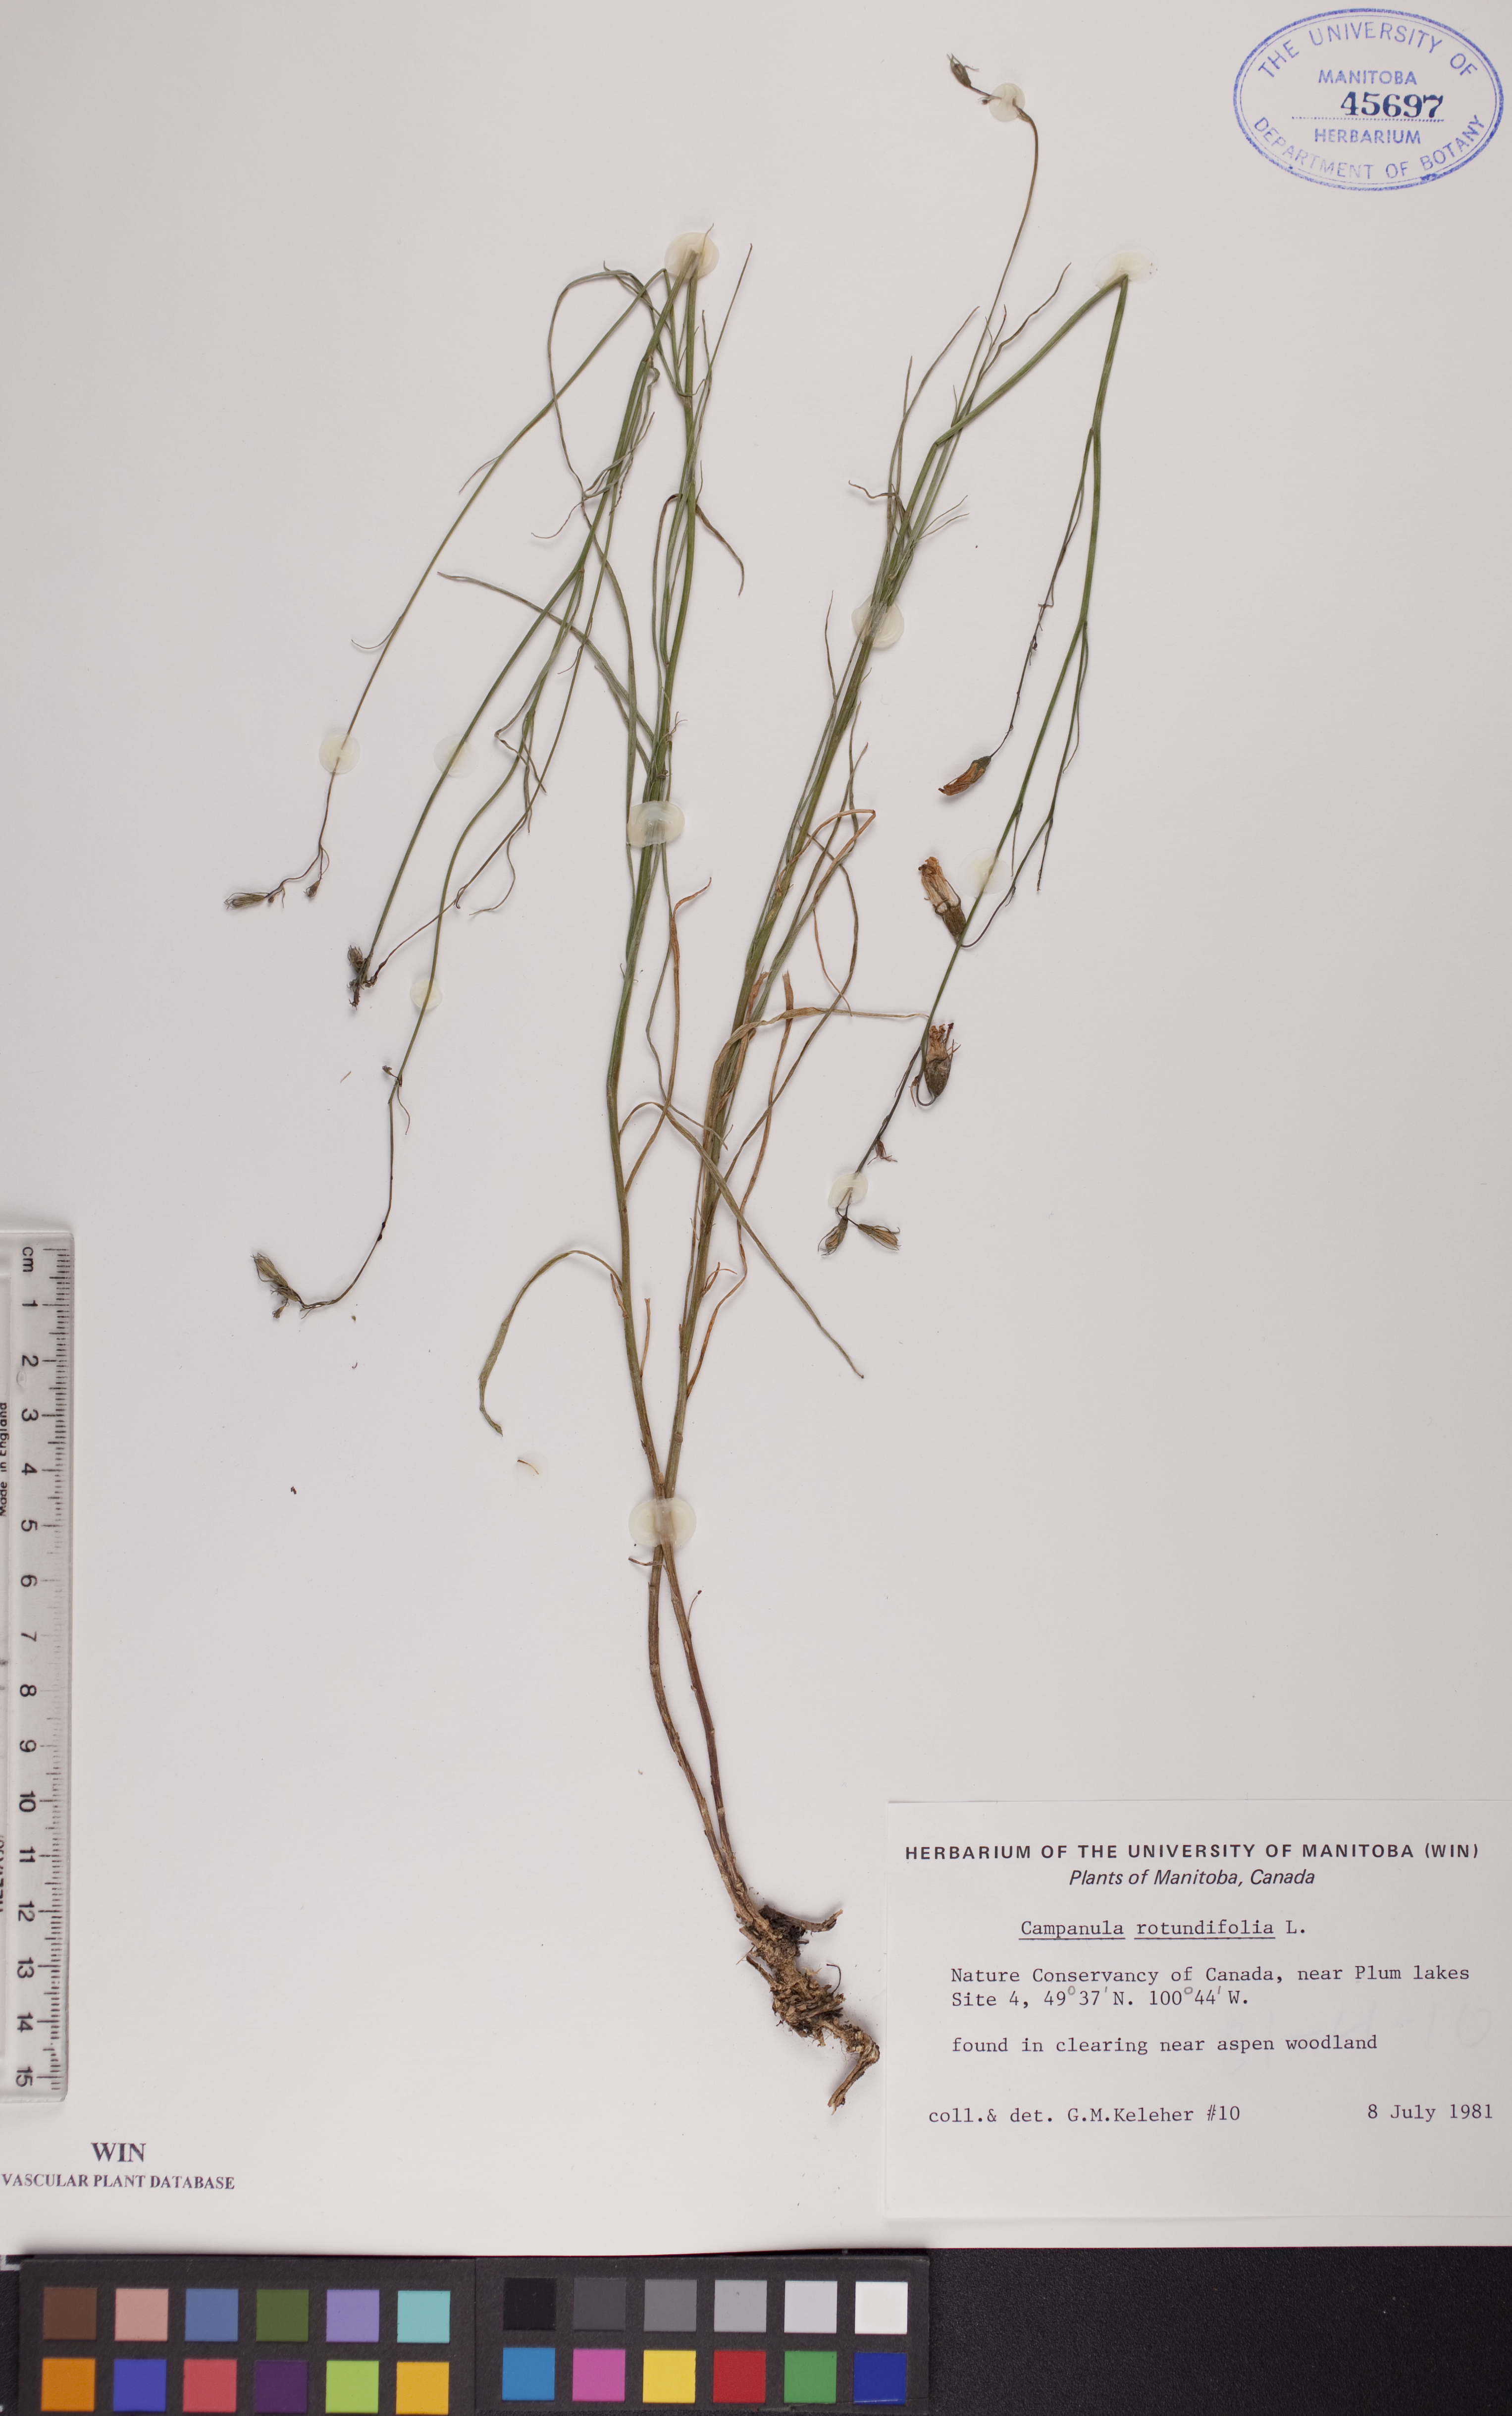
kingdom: Plantae
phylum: Tracheophyta
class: Magnoliopsida
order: Asterales
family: Campanulaceae
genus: Campanula
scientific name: Campanula rotundifolia
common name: Harebell
